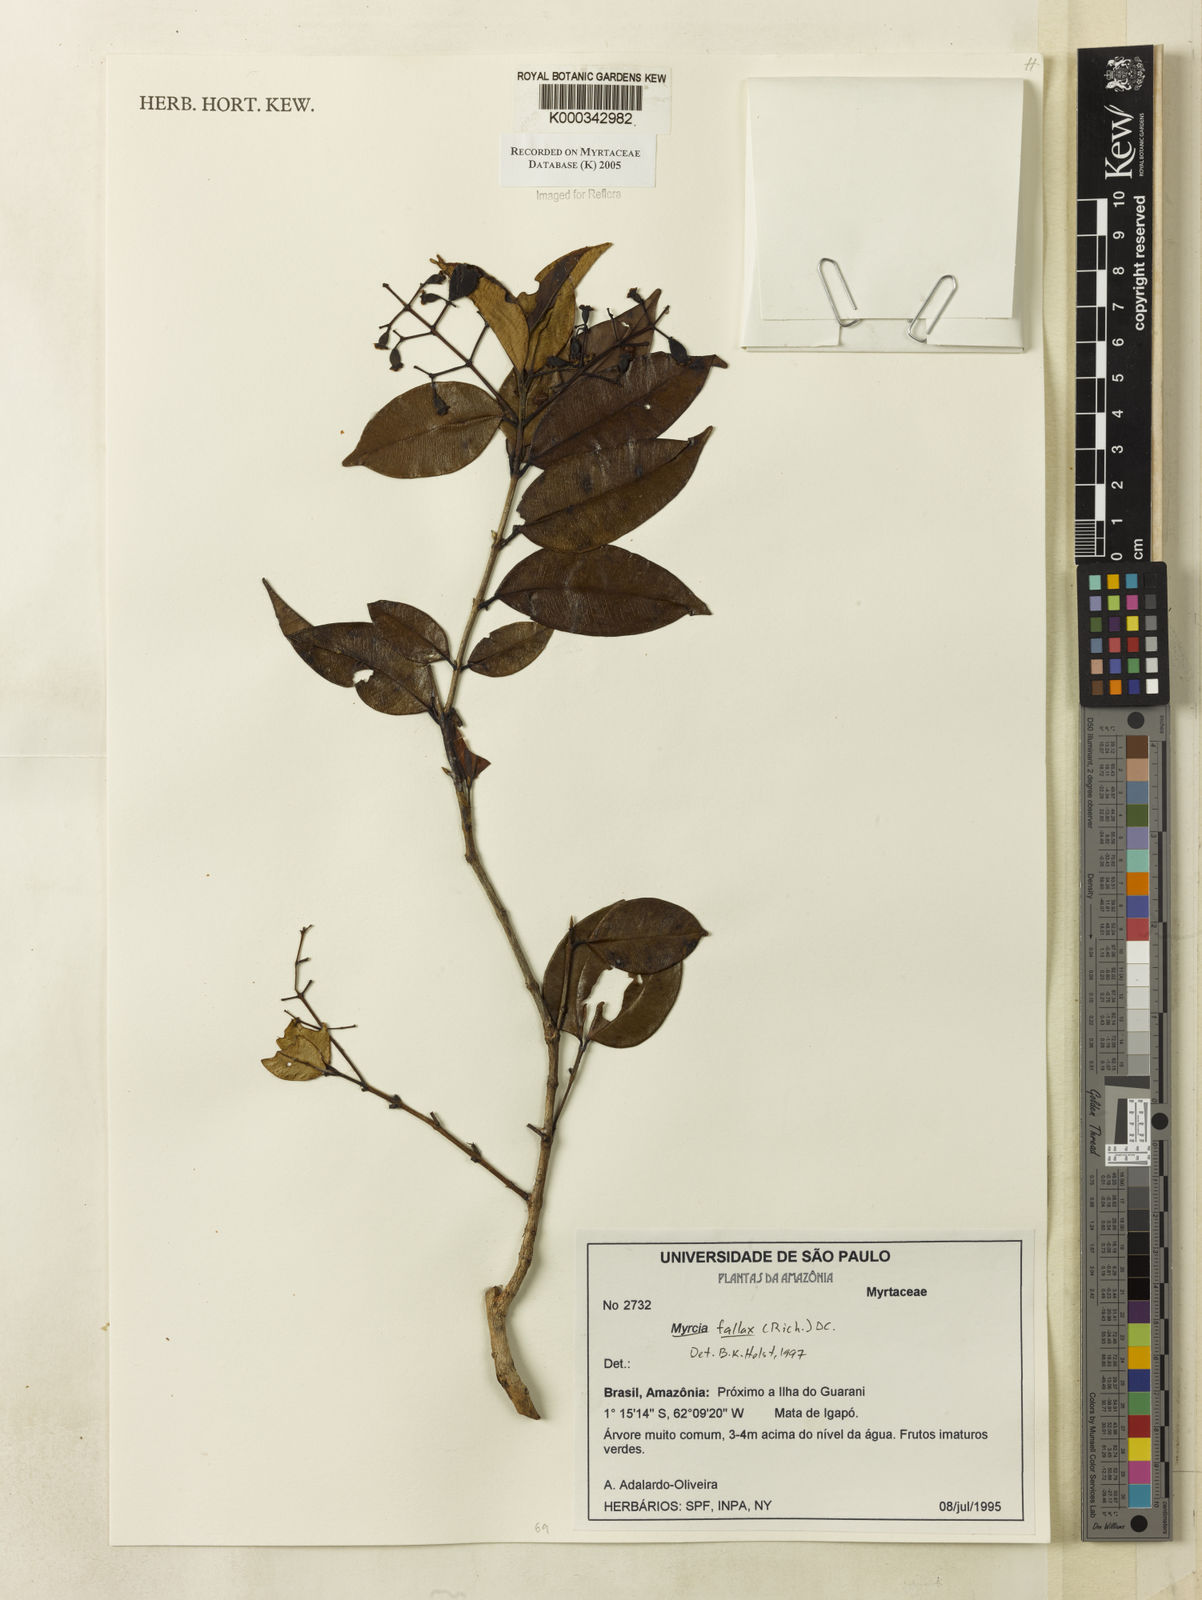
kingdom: Plantae
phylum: Tracheophyta
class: Magnoliopsida
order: Myrtales
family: Myrtaceae
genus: Myrcia
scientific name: Myrcia splendens
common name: Surinam cherry
